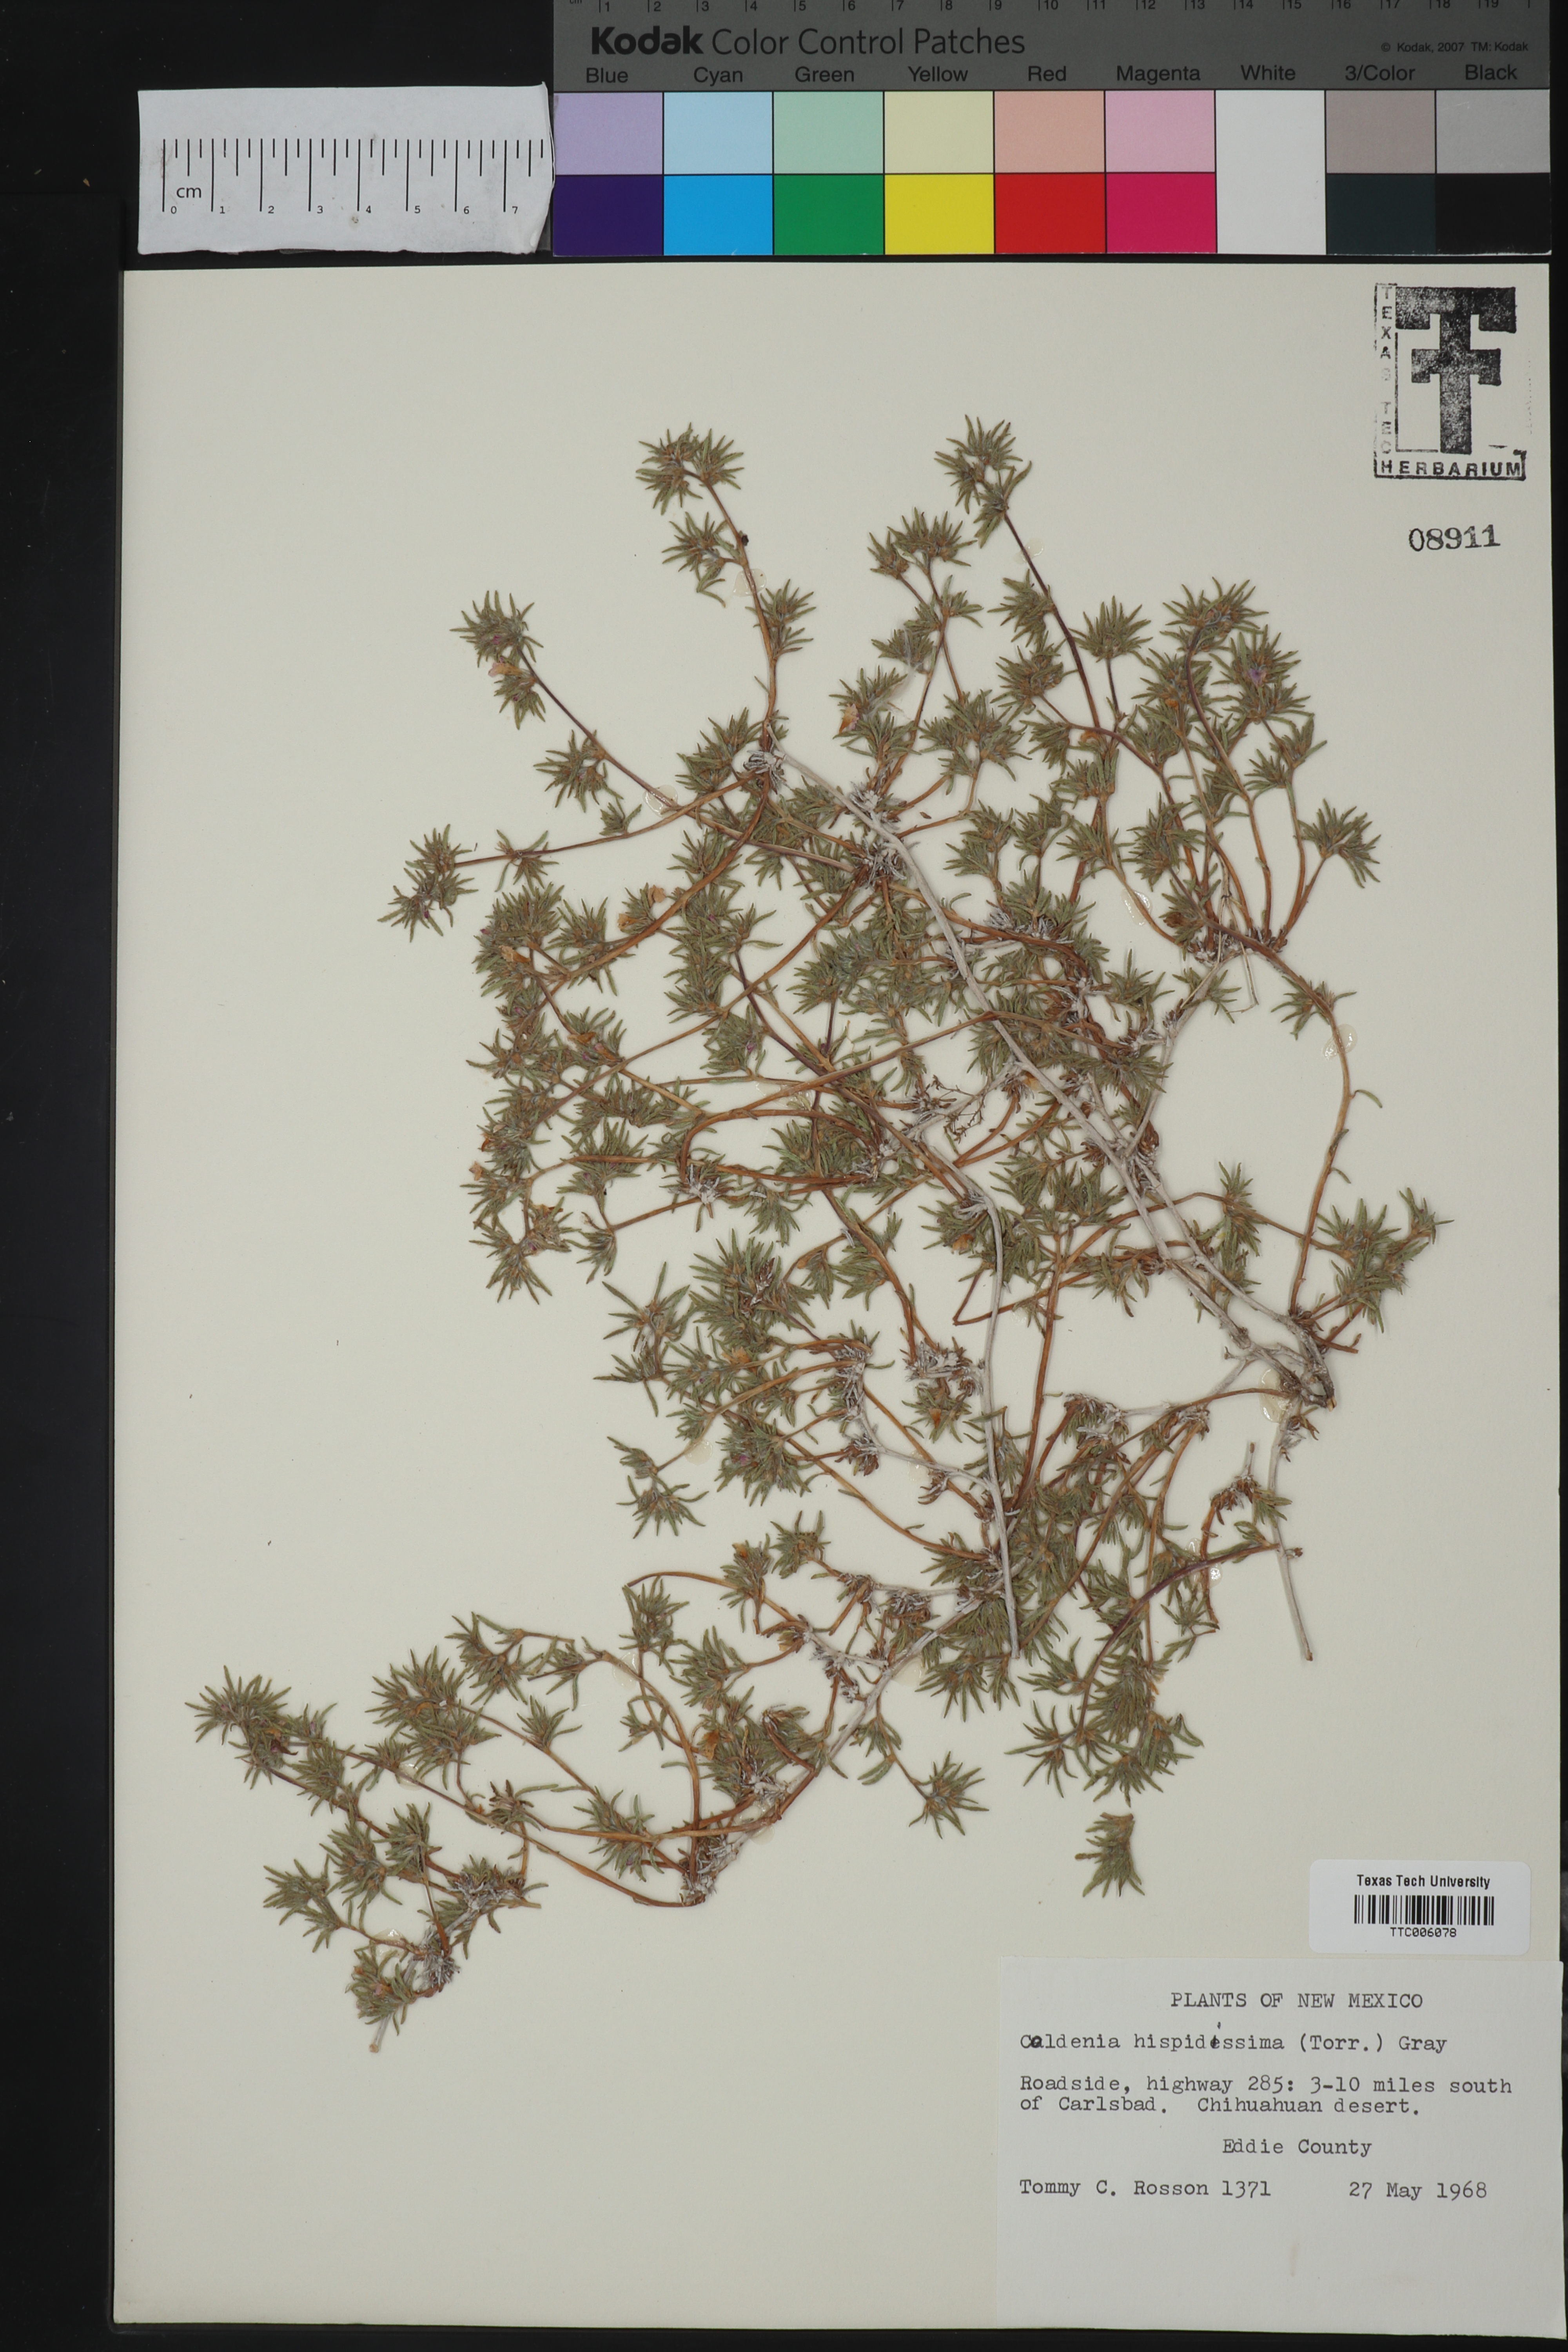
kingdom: Plantae
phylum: Tracheophyta
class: Magnoliopsida
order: Boraginales
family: Ehretiaceae
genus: Tiquilia
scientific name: Tiquilia hispidissima
